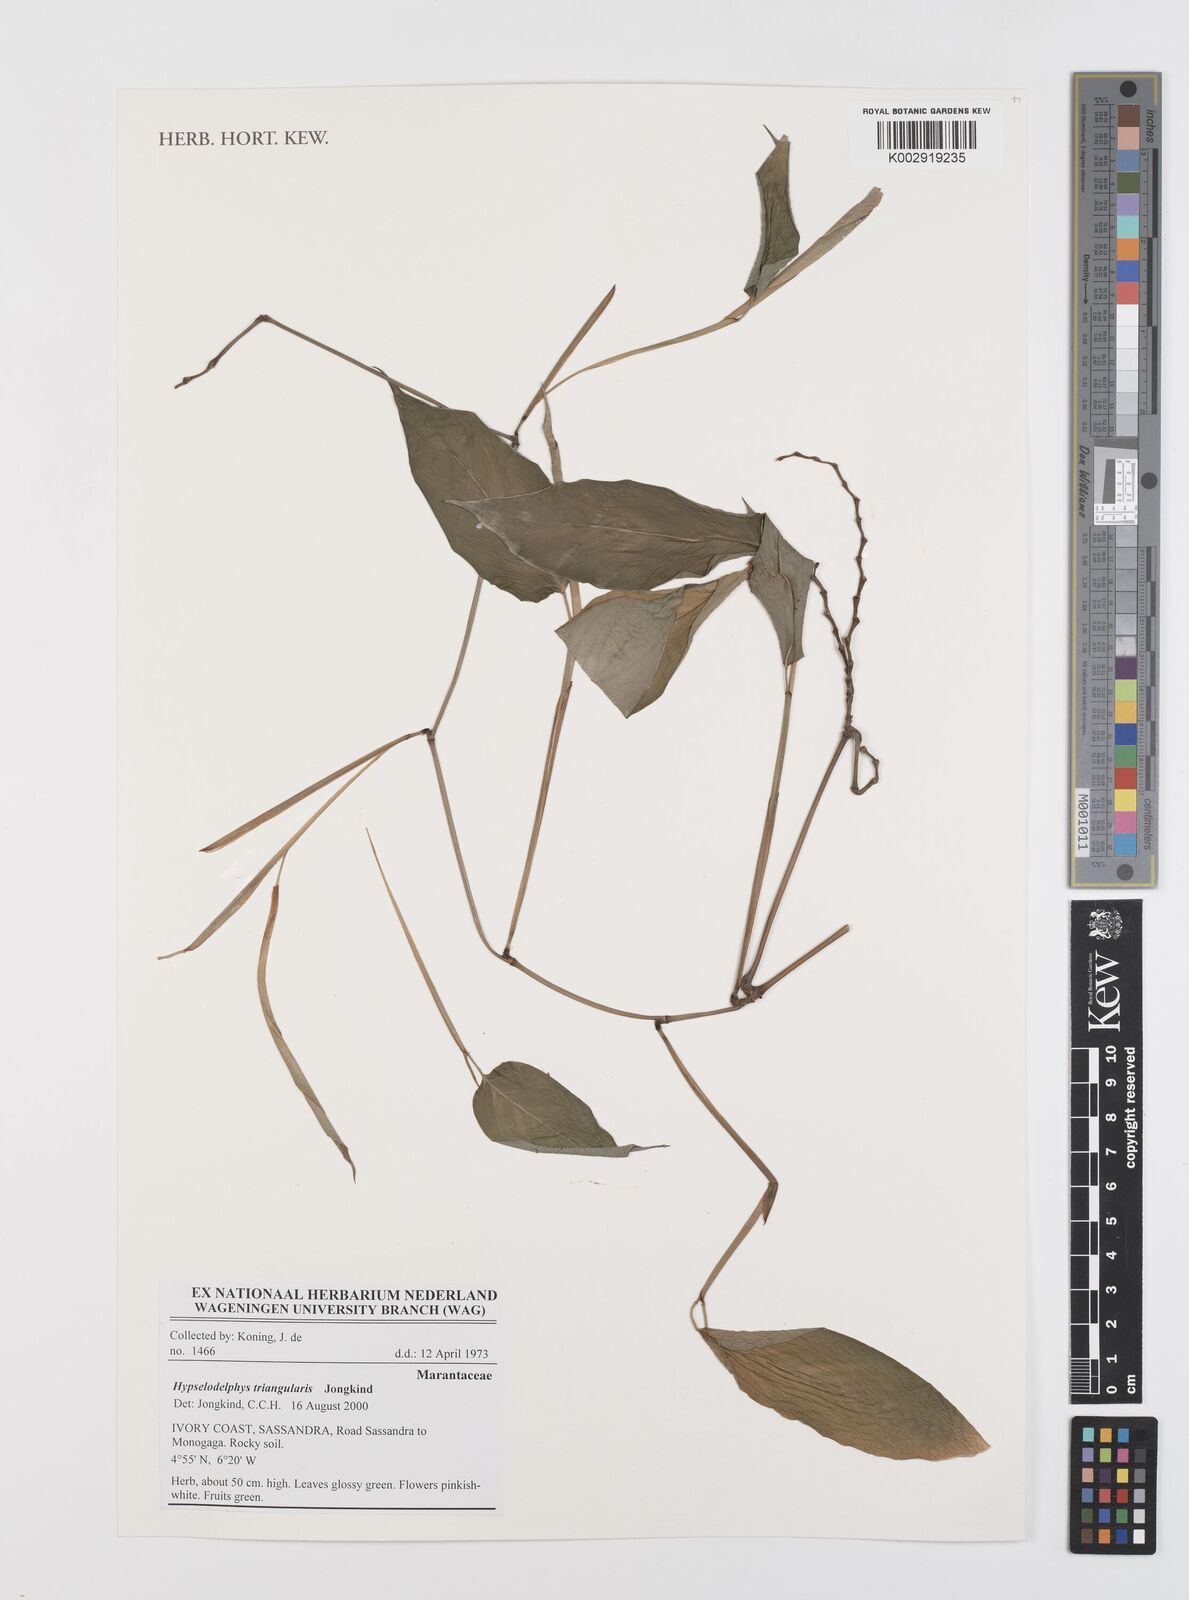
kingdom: Plantae
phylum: Tracheophyta
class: Liliopsida
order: Zingiberales
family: Marantaceae
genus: Hypselodelphys
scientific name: Hypselodelphys triangularis
